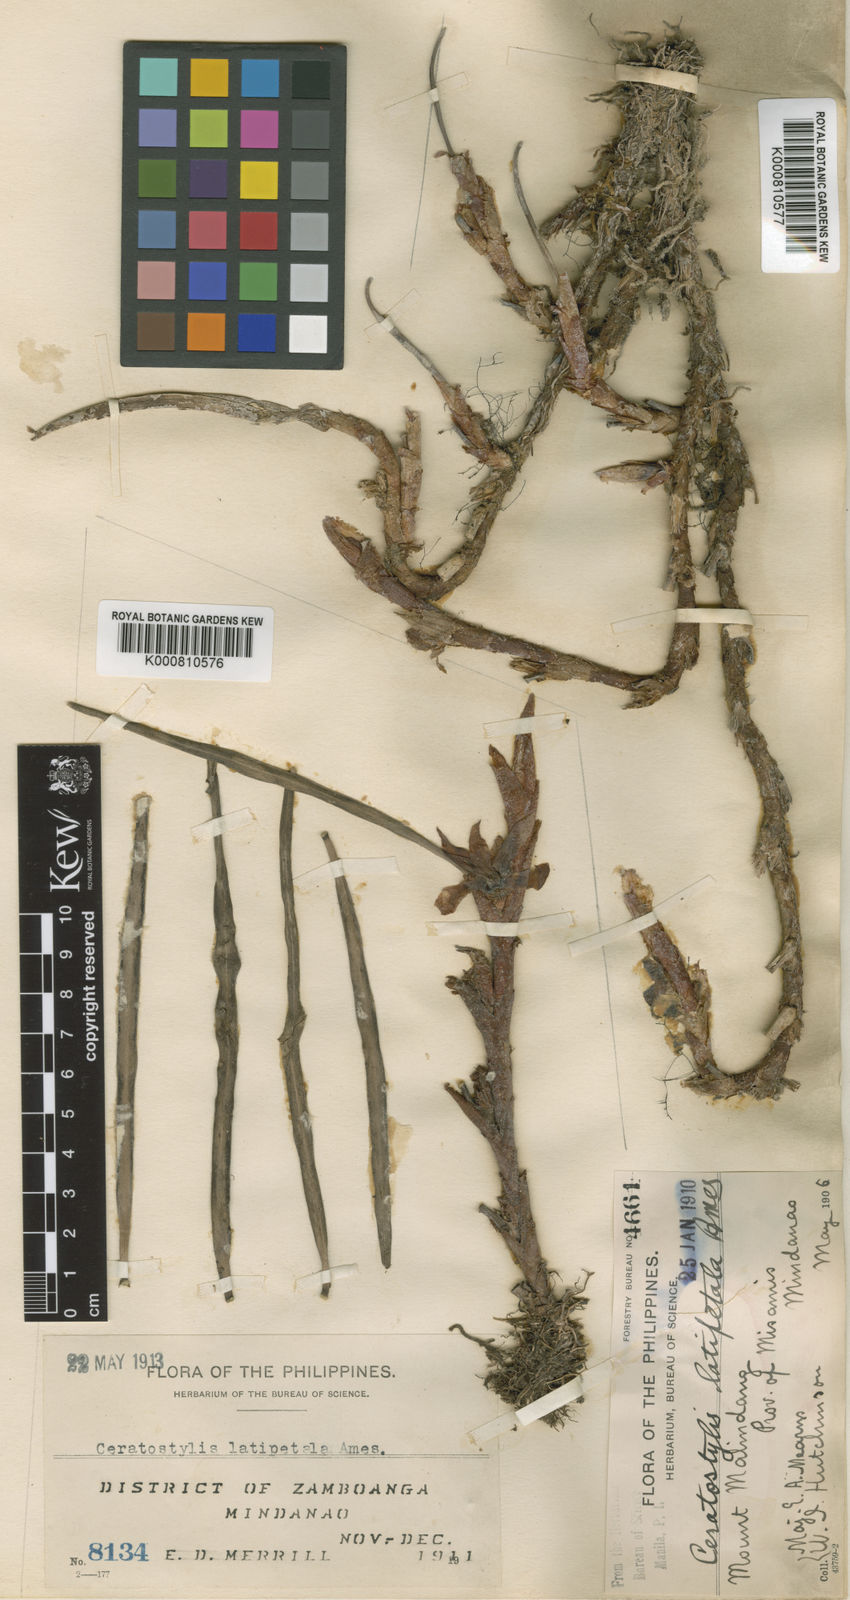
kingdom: Plantae
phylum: Tracheophyta
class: Liliopsida
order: Asparagales
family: Orchidaceae
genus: Ceratostylis
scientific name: Ceratostylis retisquama
